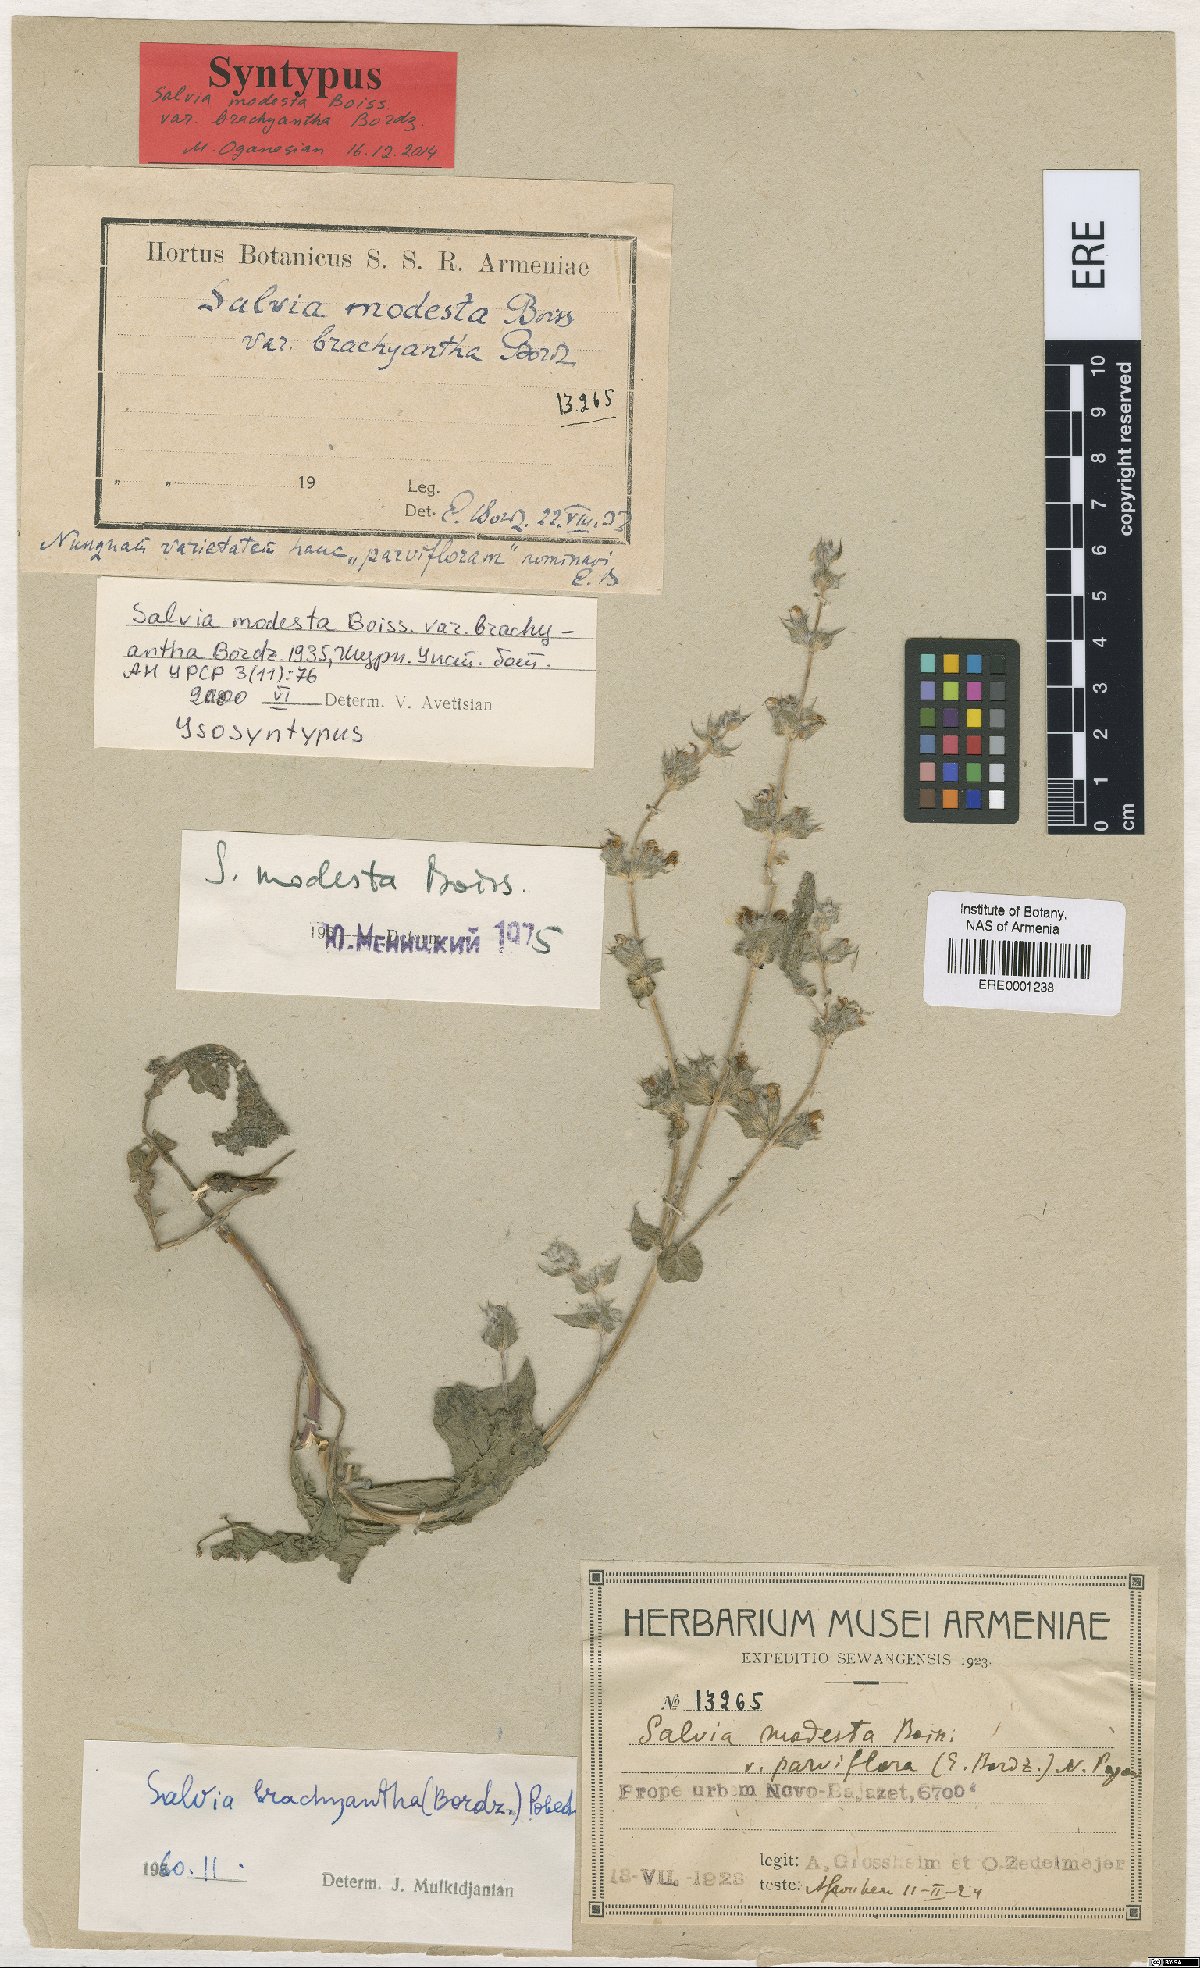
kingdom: Plantae
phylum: Tracheophyta
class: Magnoliopsida
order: Lamiales
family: Lamiaceae
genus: Salvia
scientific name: Salvia brachyantha
